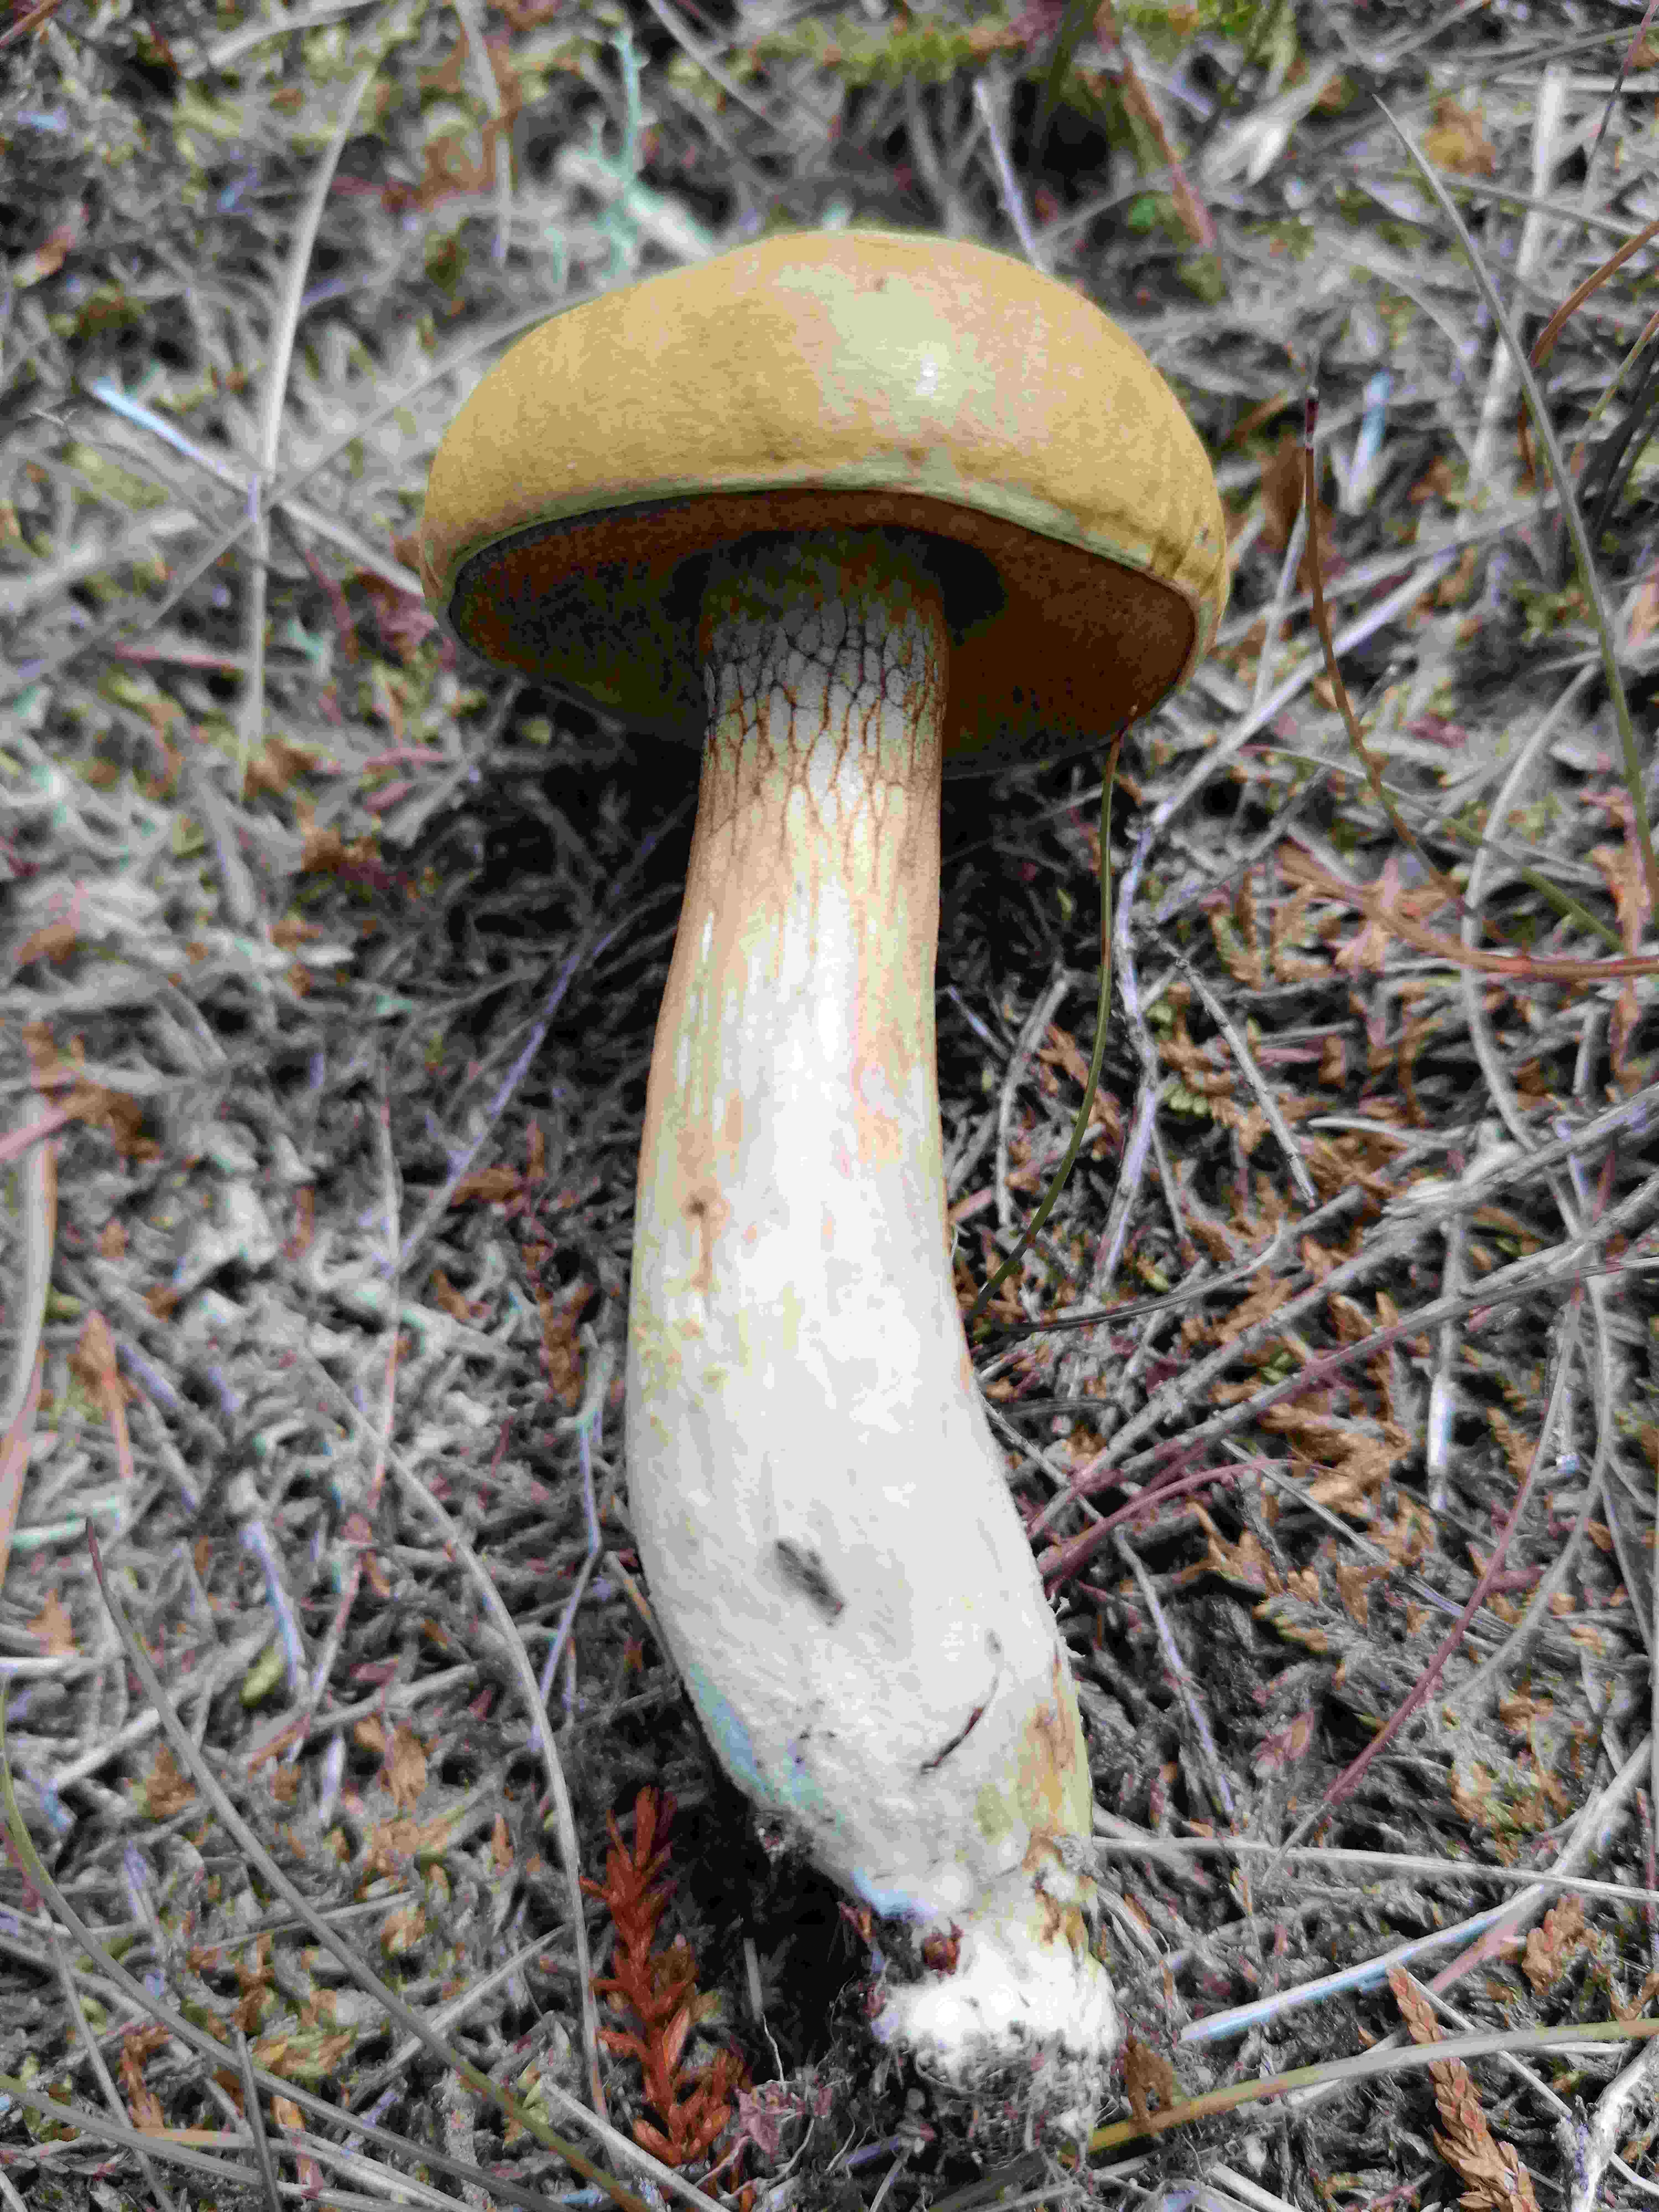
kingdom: Fungi
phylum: Basidiomycota
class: Agaricomycetes
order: Boletales
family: Suillaceae
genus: Suillus
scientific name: Suillus variegatus
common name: broget slimrørhat
